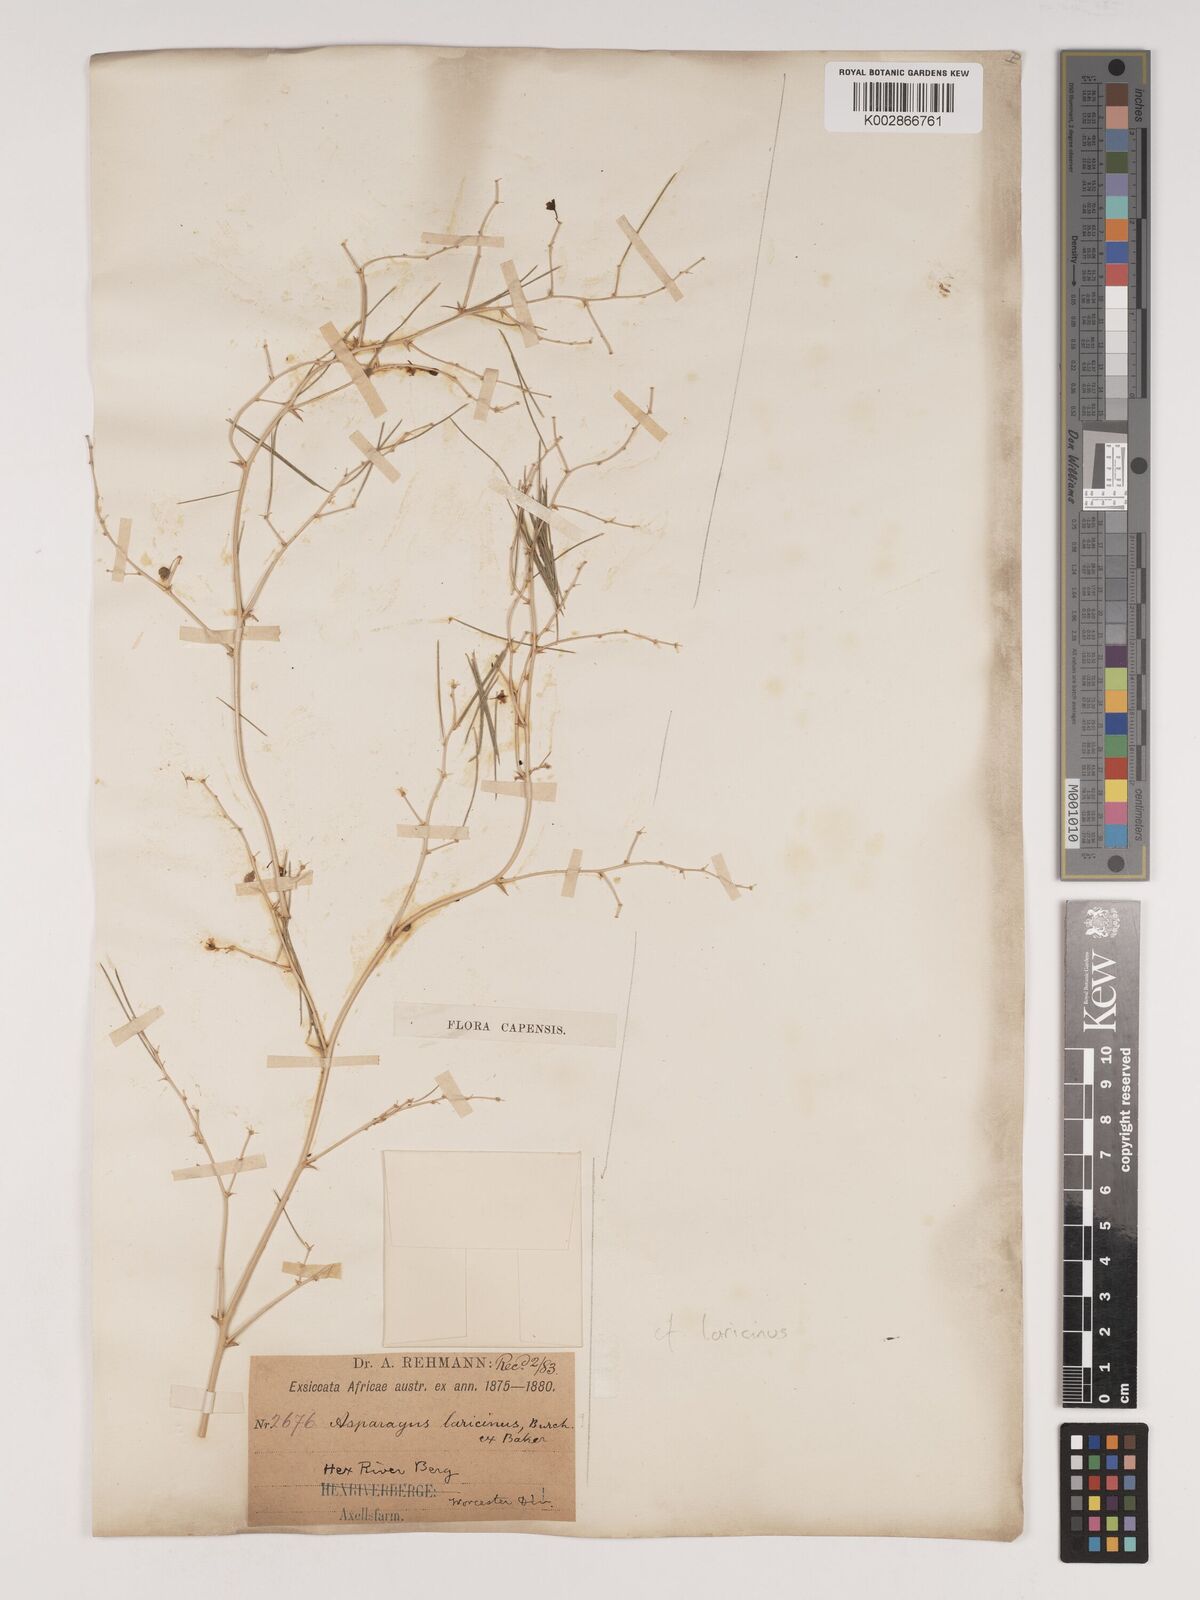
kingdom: Plantae
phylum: Tracheophyta
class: Liliopsida
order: Asparagales
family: Asparagaceae
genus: Asparagus
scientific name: Asparagus laricinus
